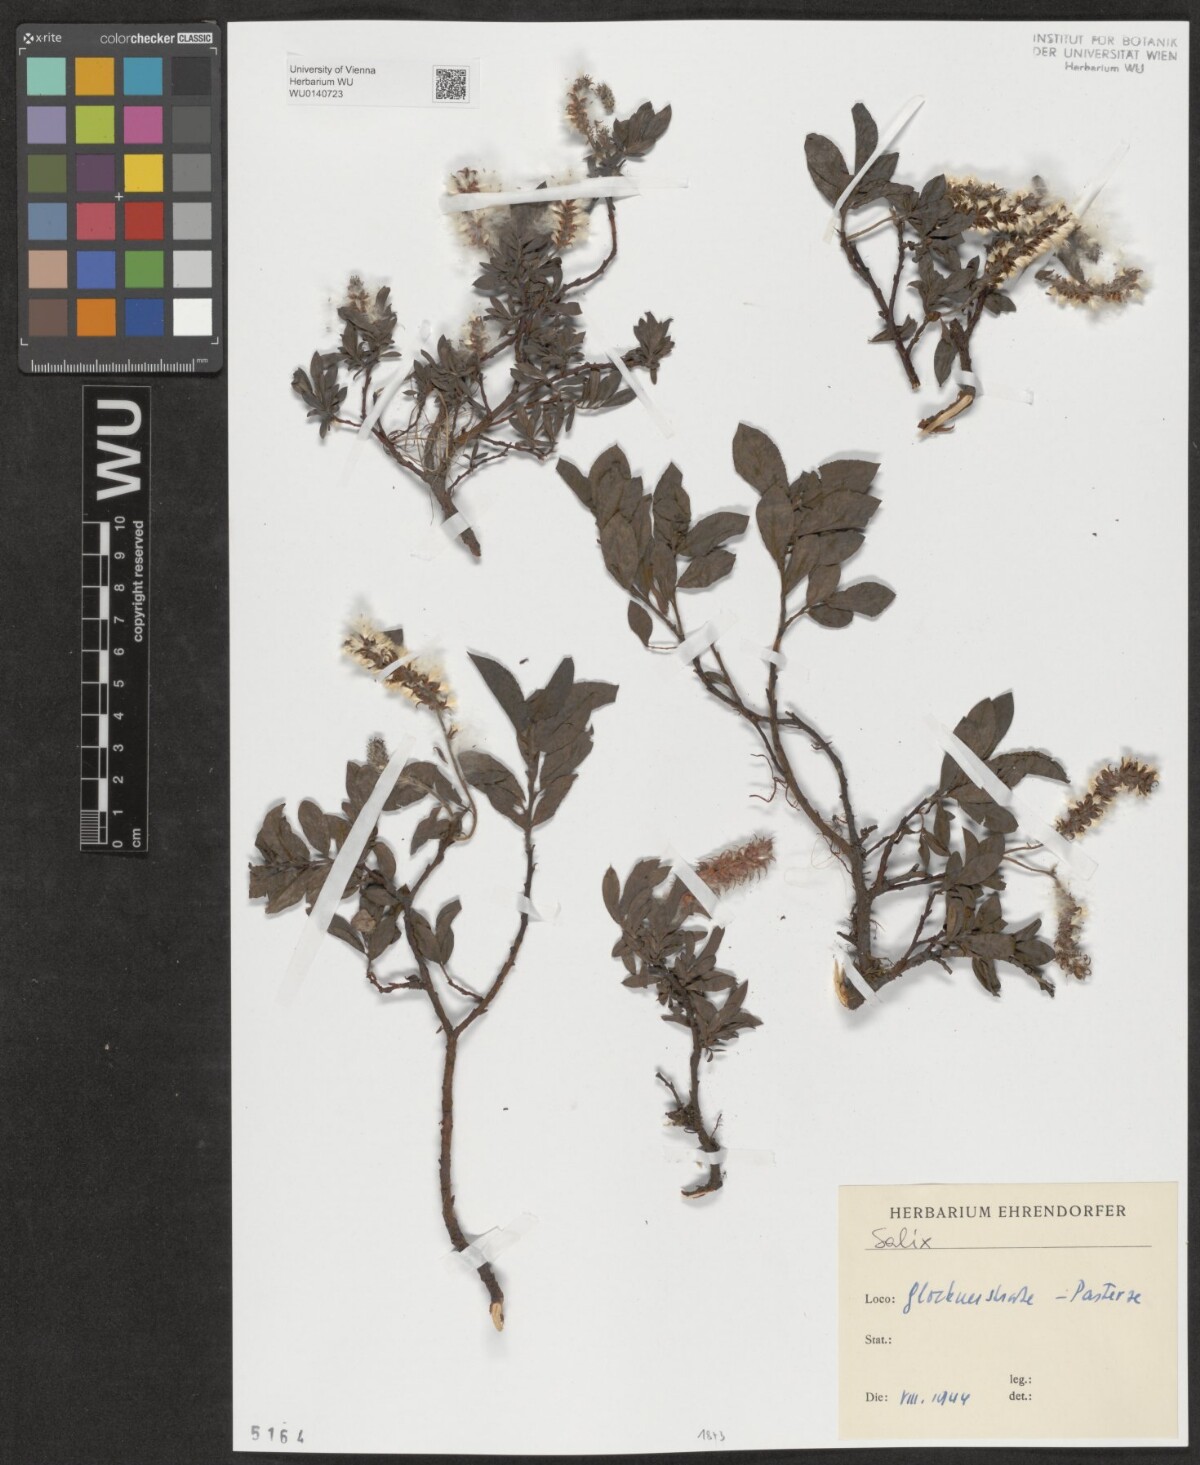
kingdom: Plantae
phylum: Tracheophyta
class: Magnoliopsida
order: Malpighiales
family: Salicaceae
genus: Salix
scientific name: Salix
